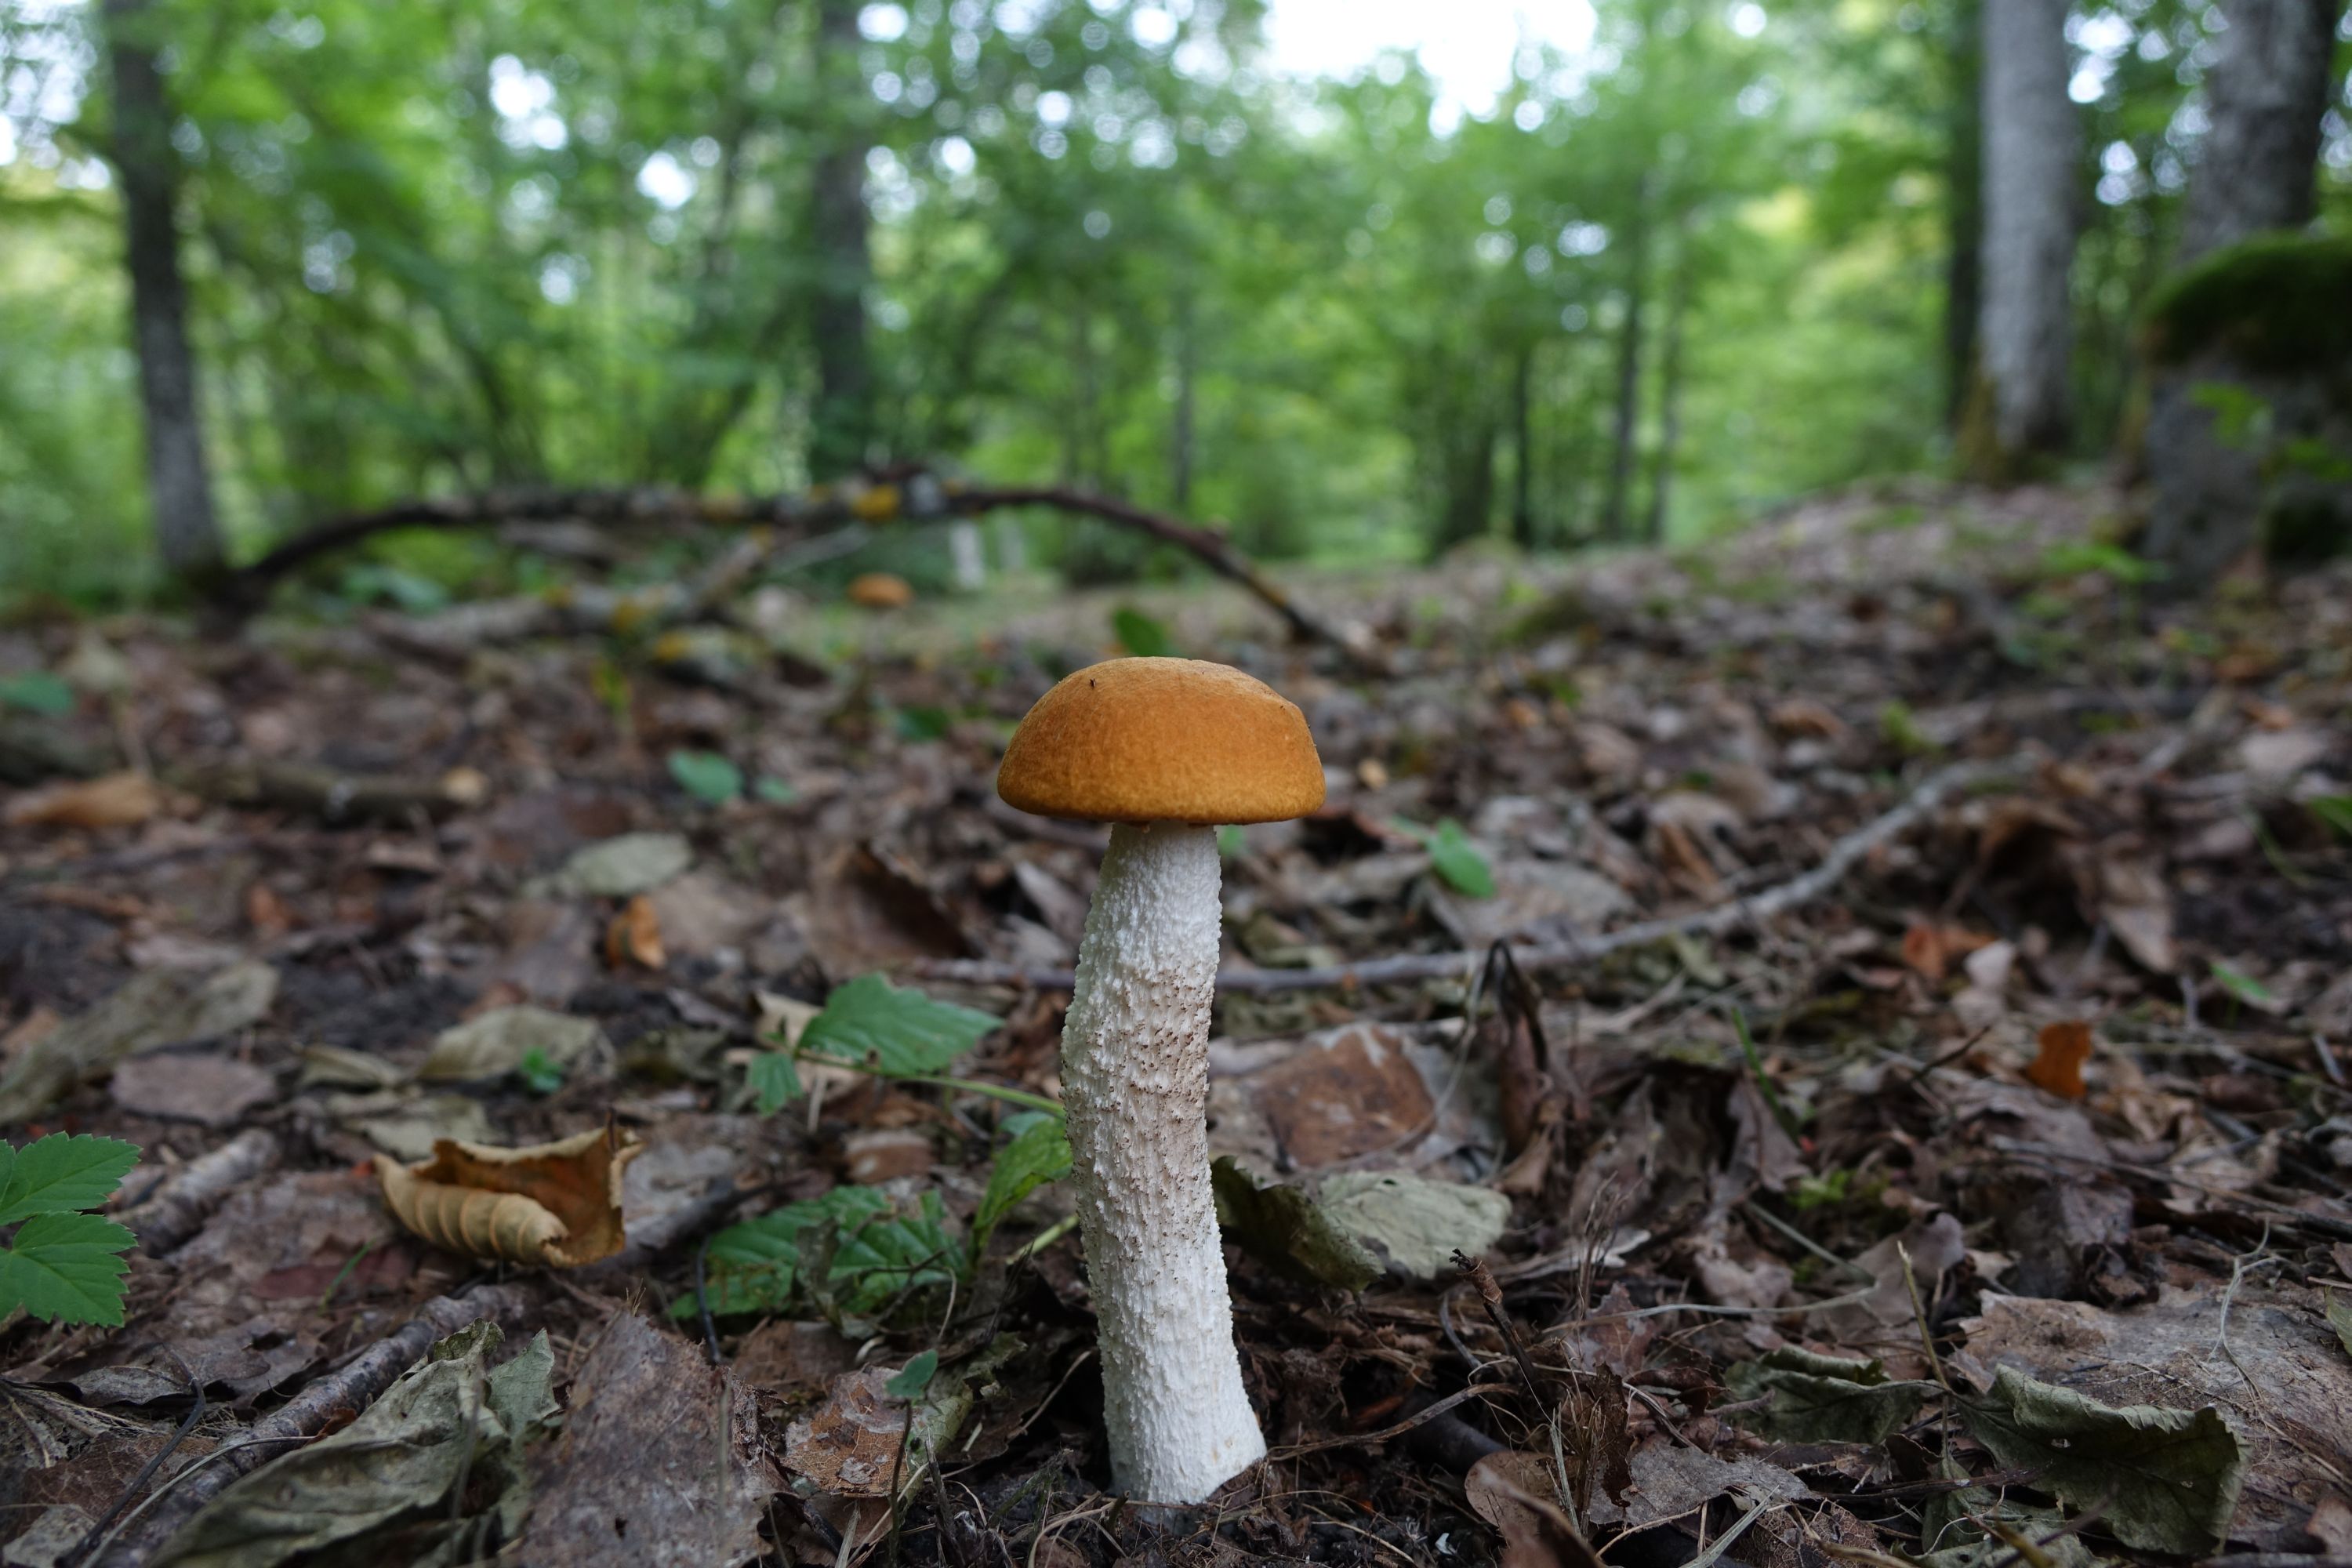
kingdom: Fungi
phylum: Basidiomycota
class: Agaricomycetes
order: Boletales
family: Boletaceae
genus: Leccinum
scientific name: Leccinum albostipitatum
